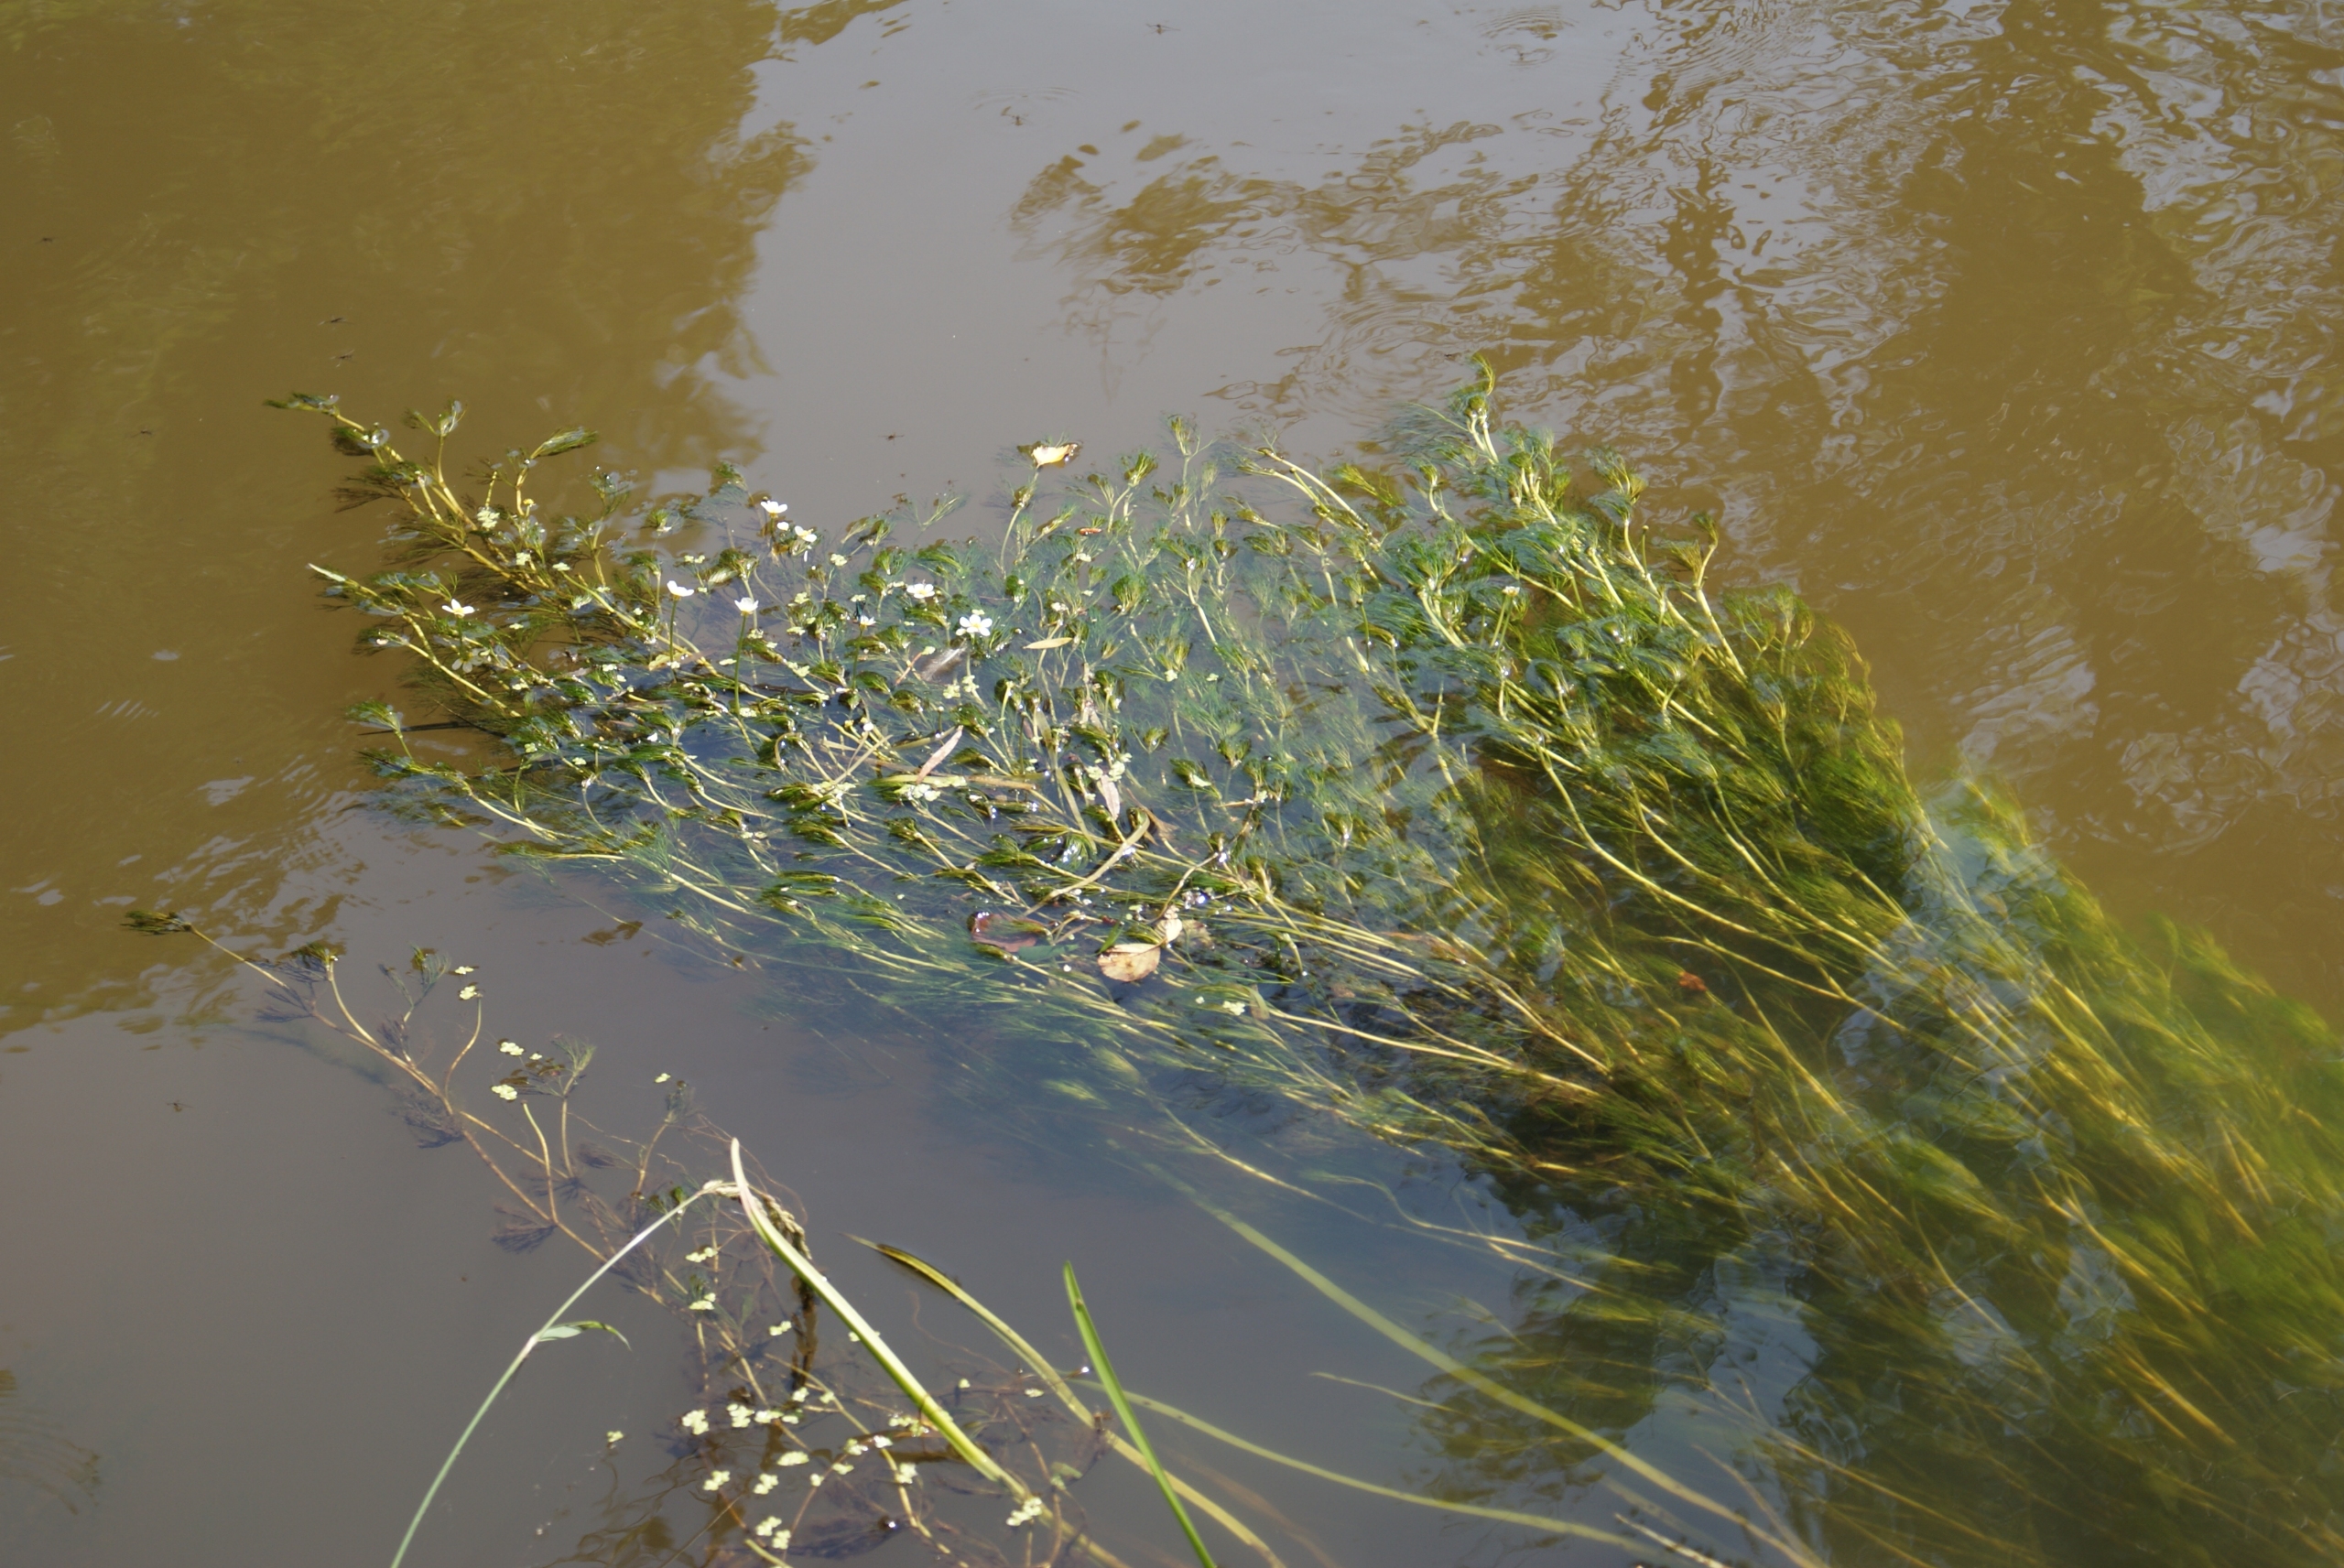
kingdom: Plantae
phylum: Tracheophyta
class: Magnoliopsida
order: Ranunculales
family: Ranunculaceae
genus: Ranunculus
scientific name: Ranunculus
